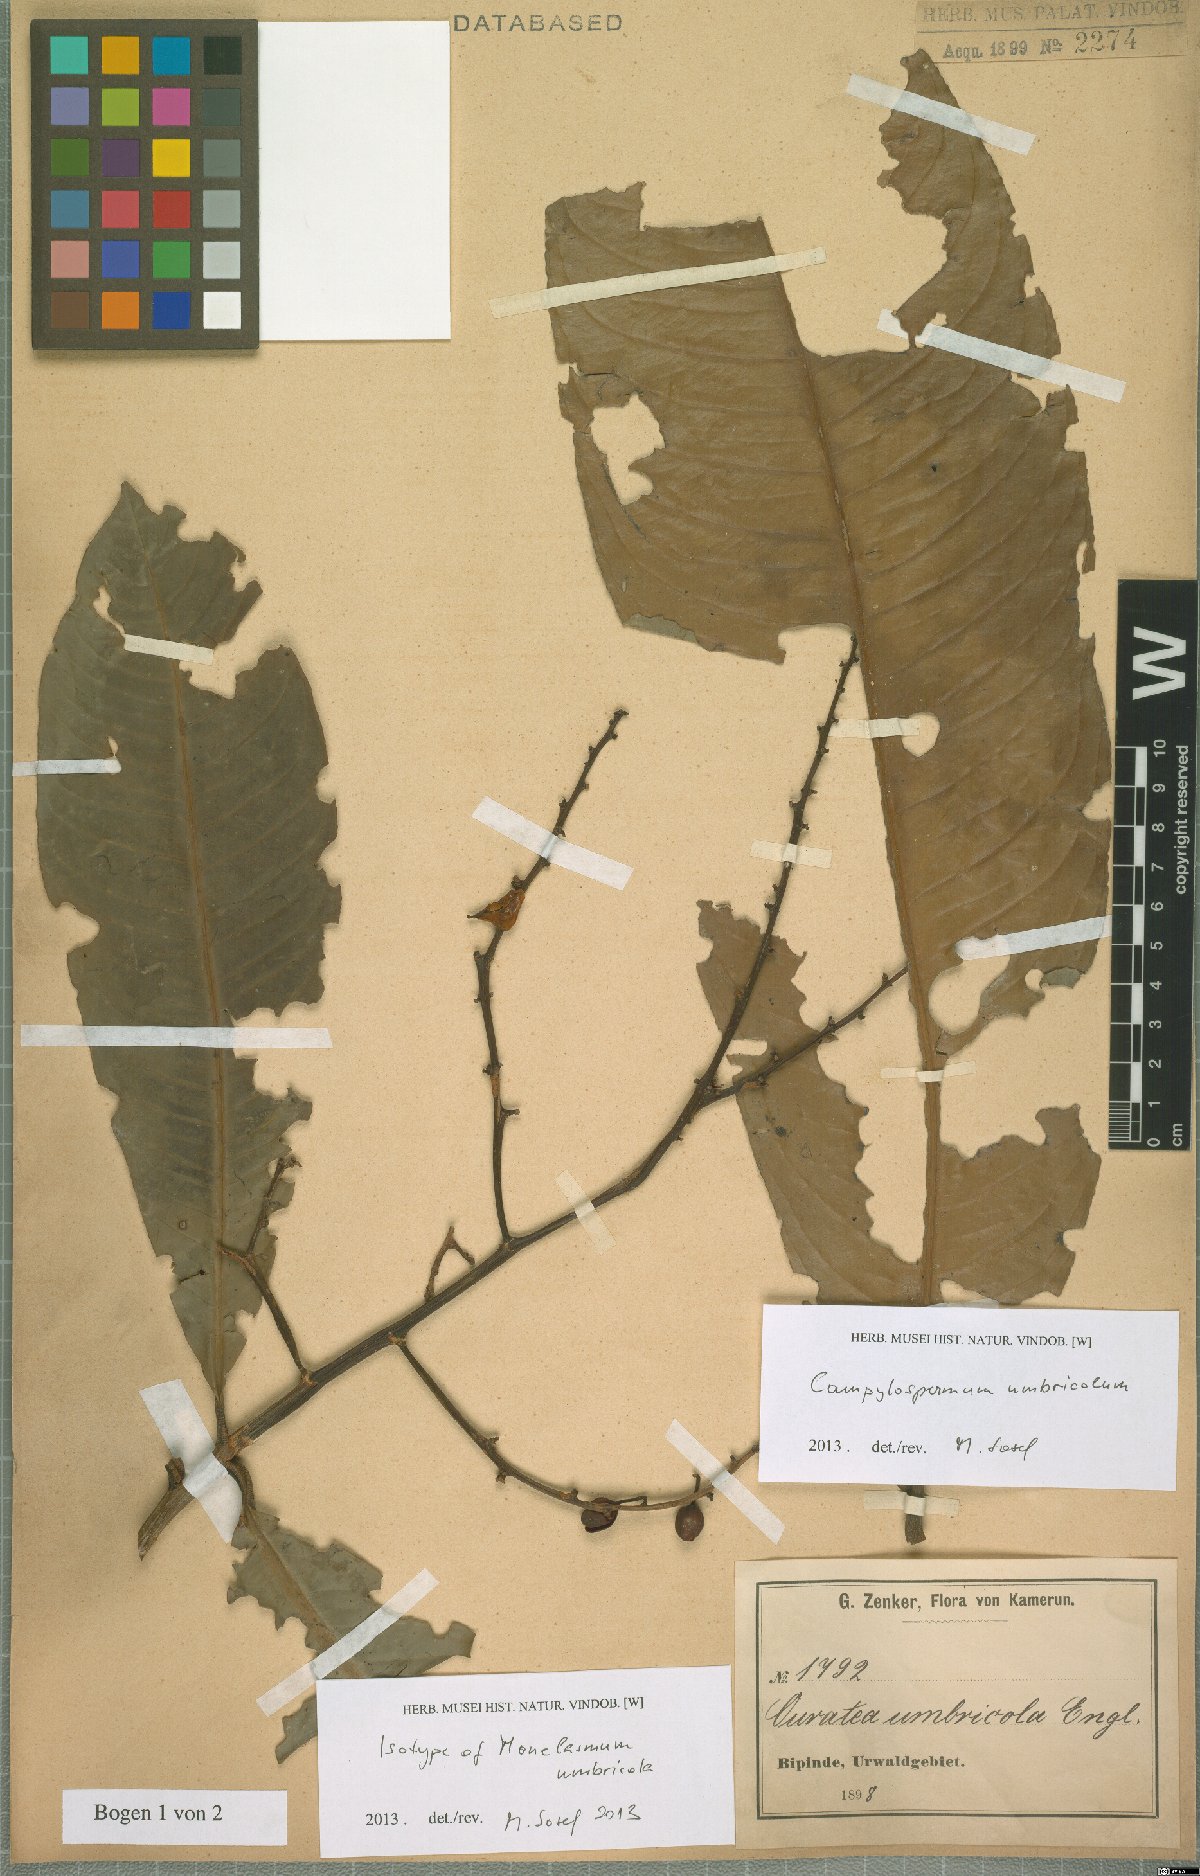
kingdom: Plantae
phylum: Tracheophyta
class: Magnoliopsida
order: Malpighiales
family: Ochnaceae
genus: Campylospermum
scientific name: Campylospermum umbricola
